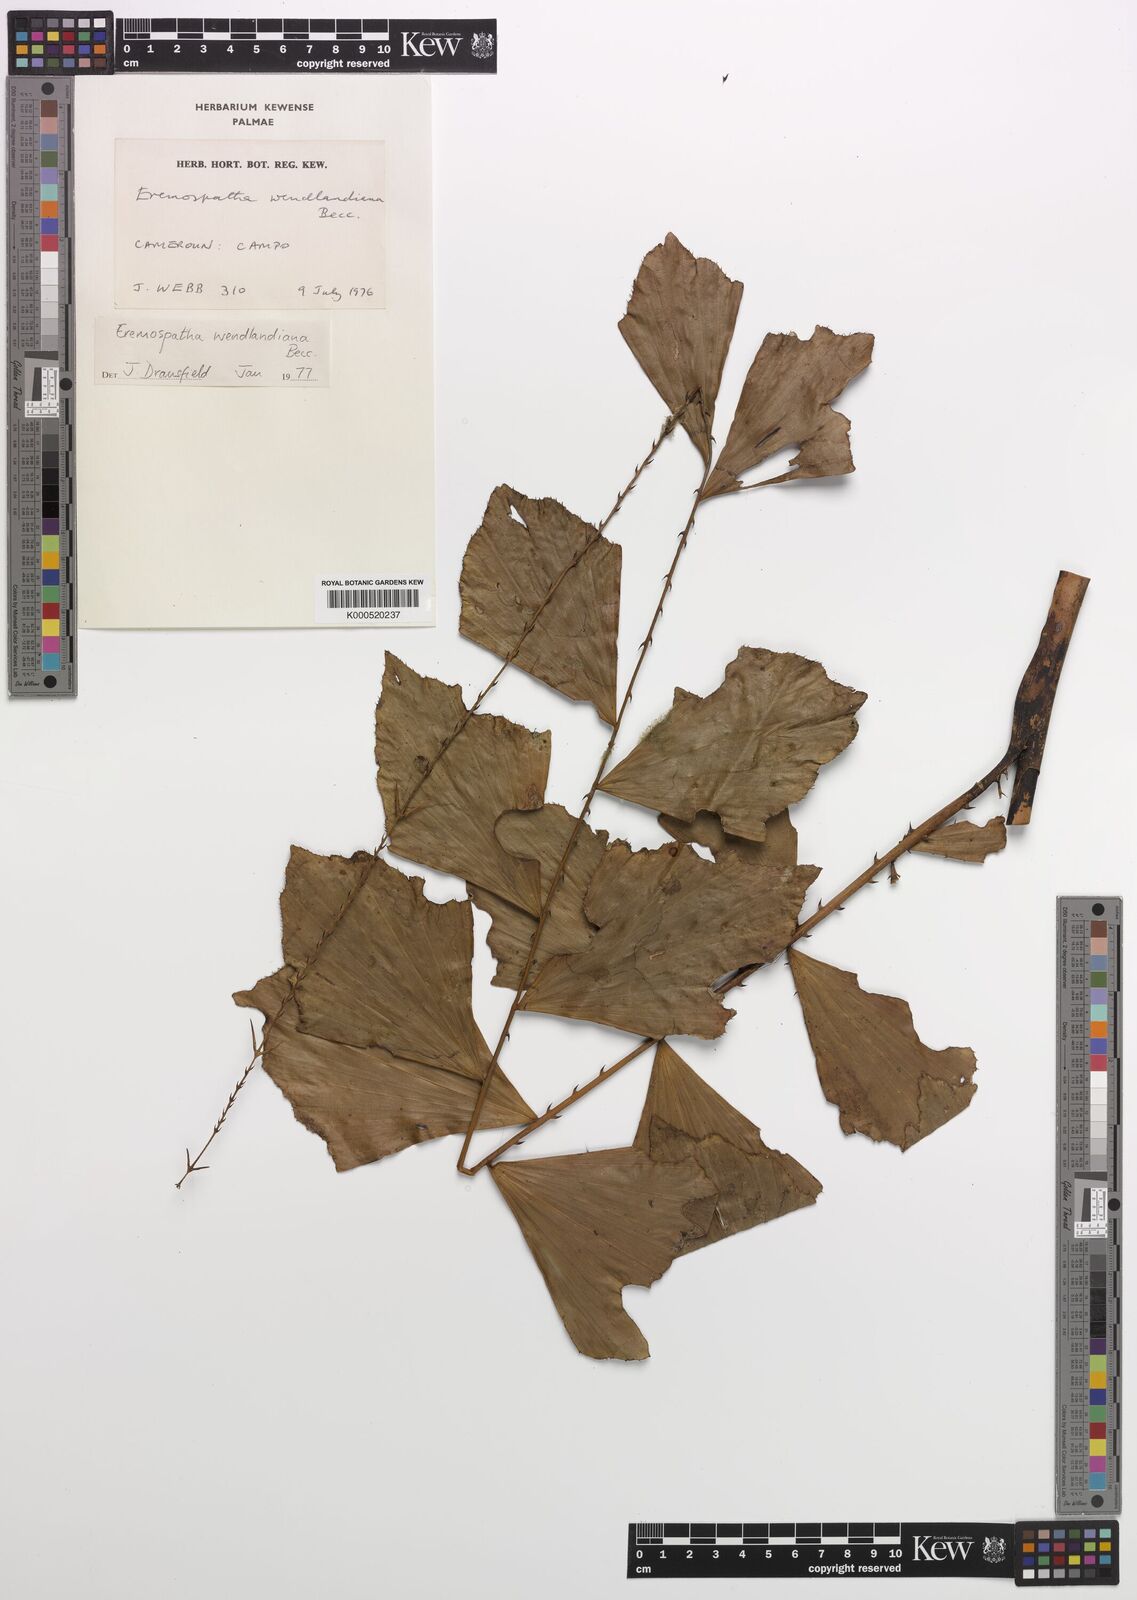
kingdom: Plantae
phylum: Tracheophyta
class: Liliopsida
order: Arecales
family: Arecaceae
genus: Eremospatha
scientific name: Eremospatha wendlandiana
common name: Rattan
